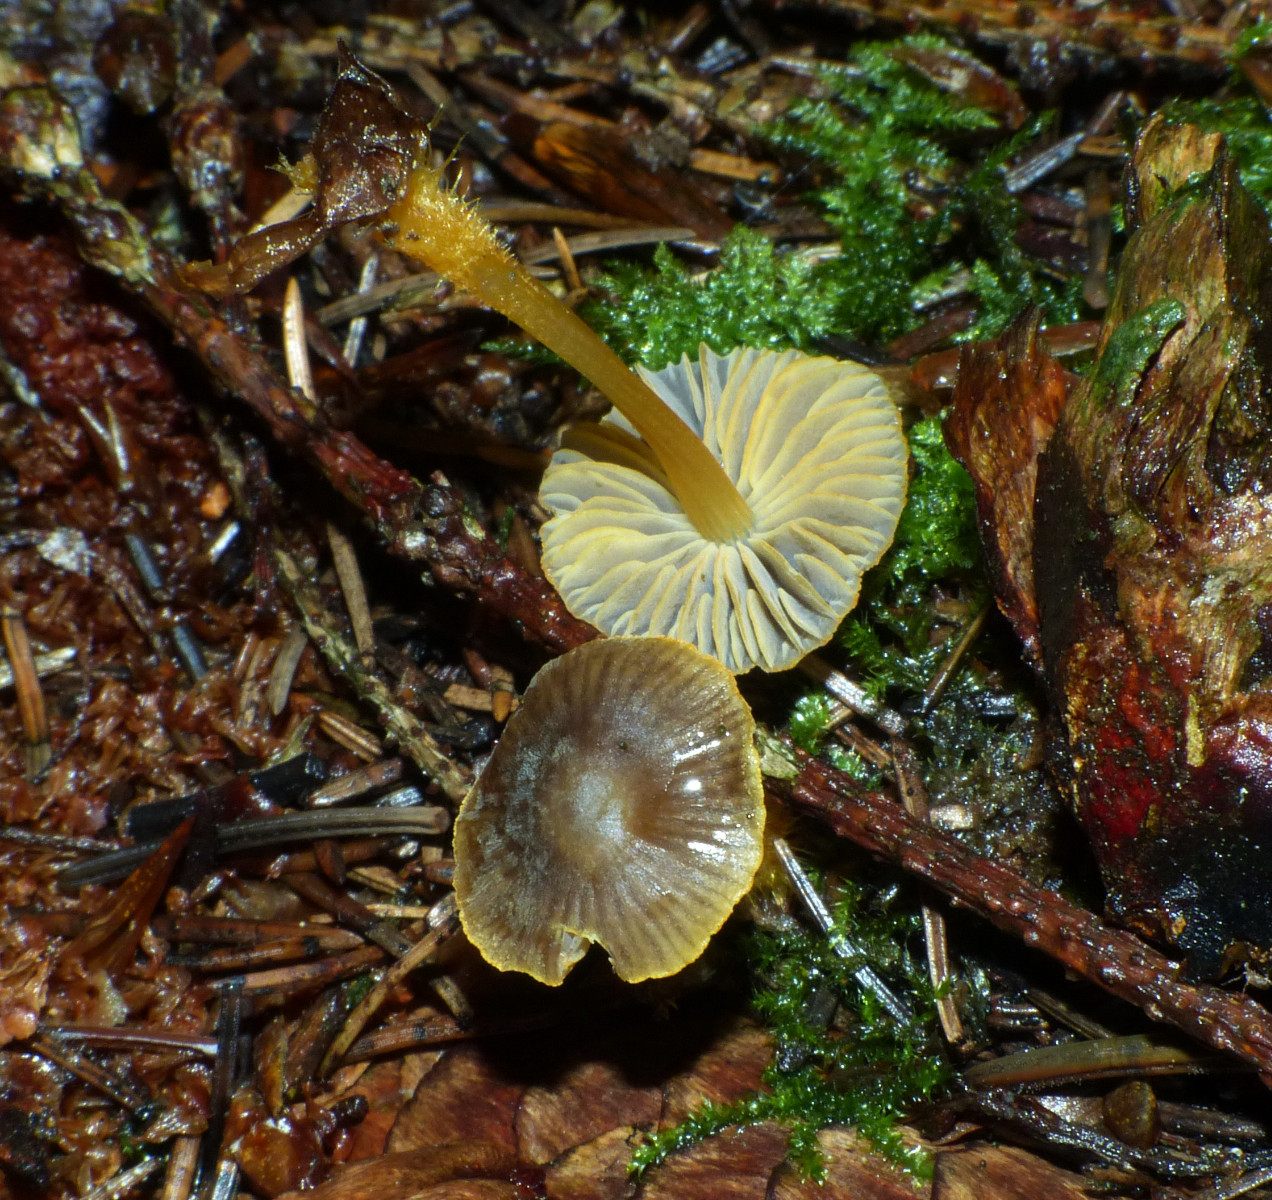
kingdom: Fungi
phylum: Basidiomycota
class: Agaricomycetes
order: Agaricales
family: Mycenaceae
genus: Mycena
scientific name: Mycena aurantiomarginata
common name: orangeægget huesvamp
